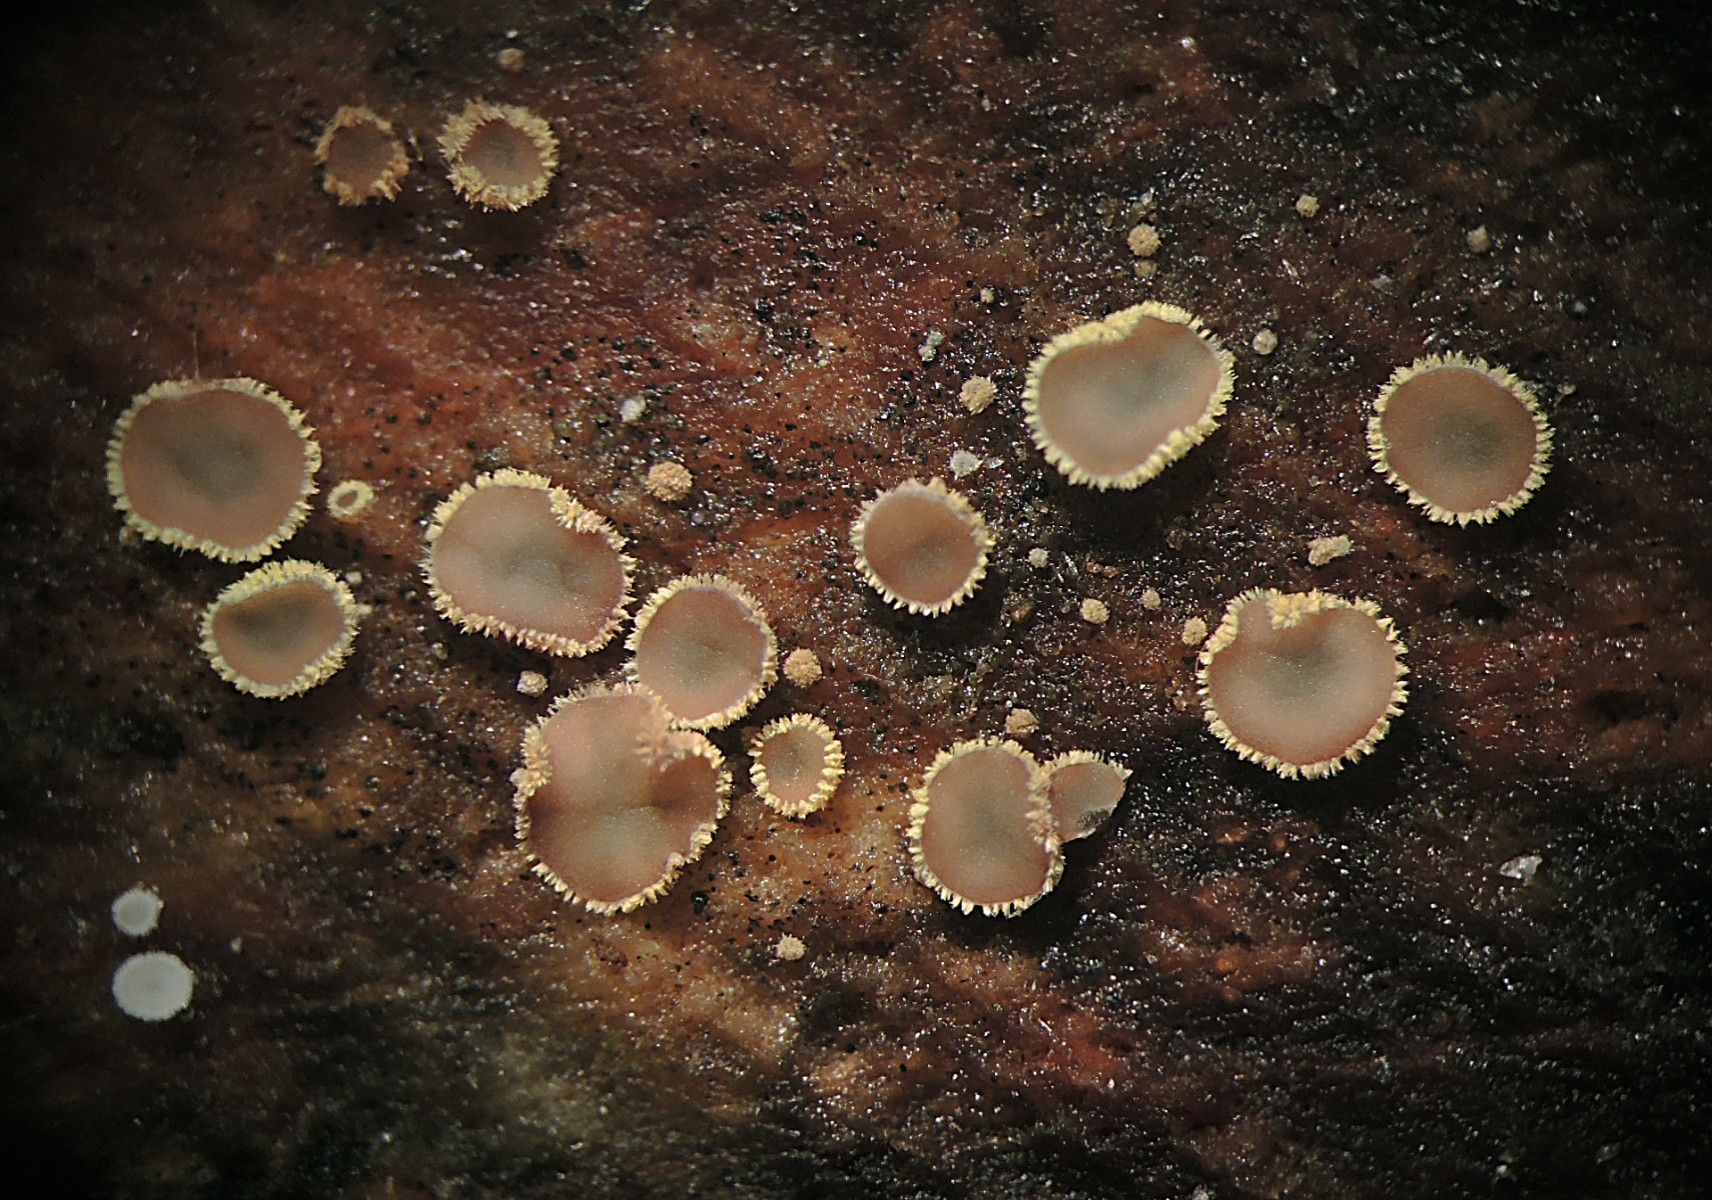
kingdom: Fungi
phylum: Ascomycota
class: Leotiomycetes
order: Helotiales
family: Lachnaceae
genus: Trichopeziza
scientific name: Trichopeziza subsulphurea
